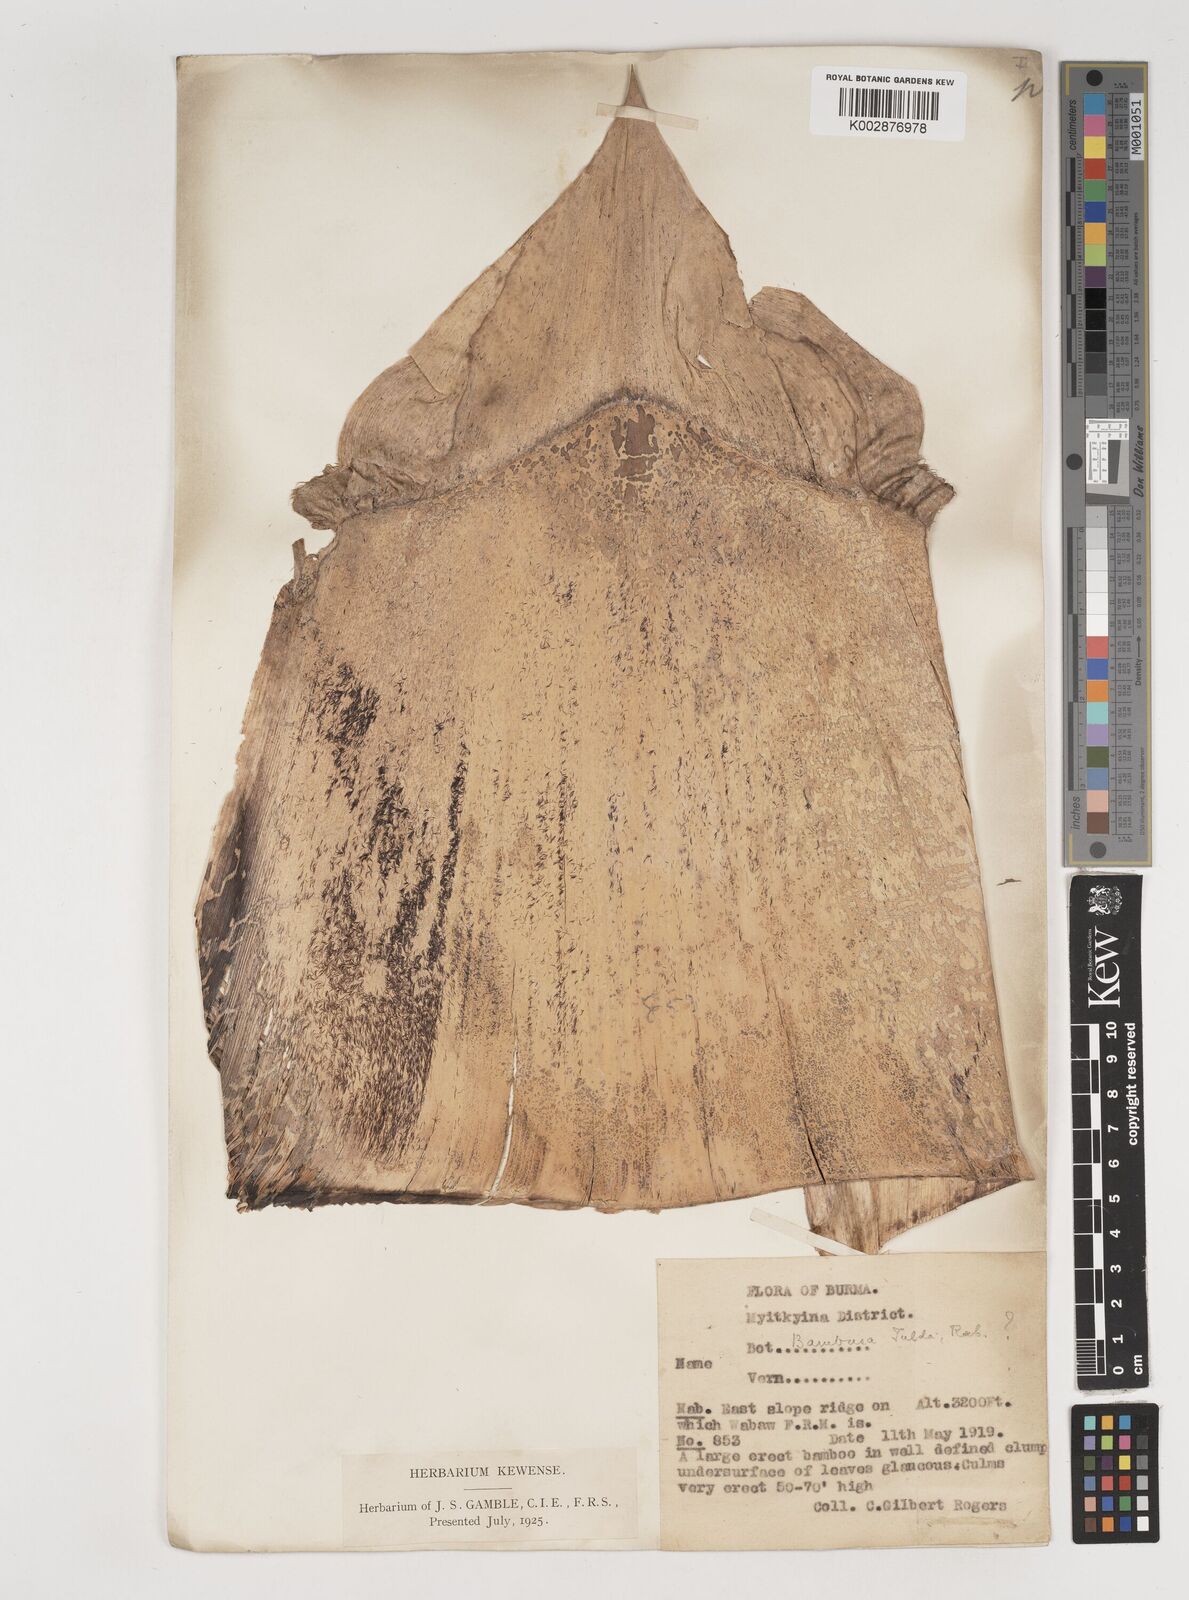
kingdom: Plantae
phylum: Tracheophyta
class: Liliopsida
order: Poales
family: Poaceae
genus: Bambusa
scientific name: Bambusa tulda
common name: Bengal bamboo
